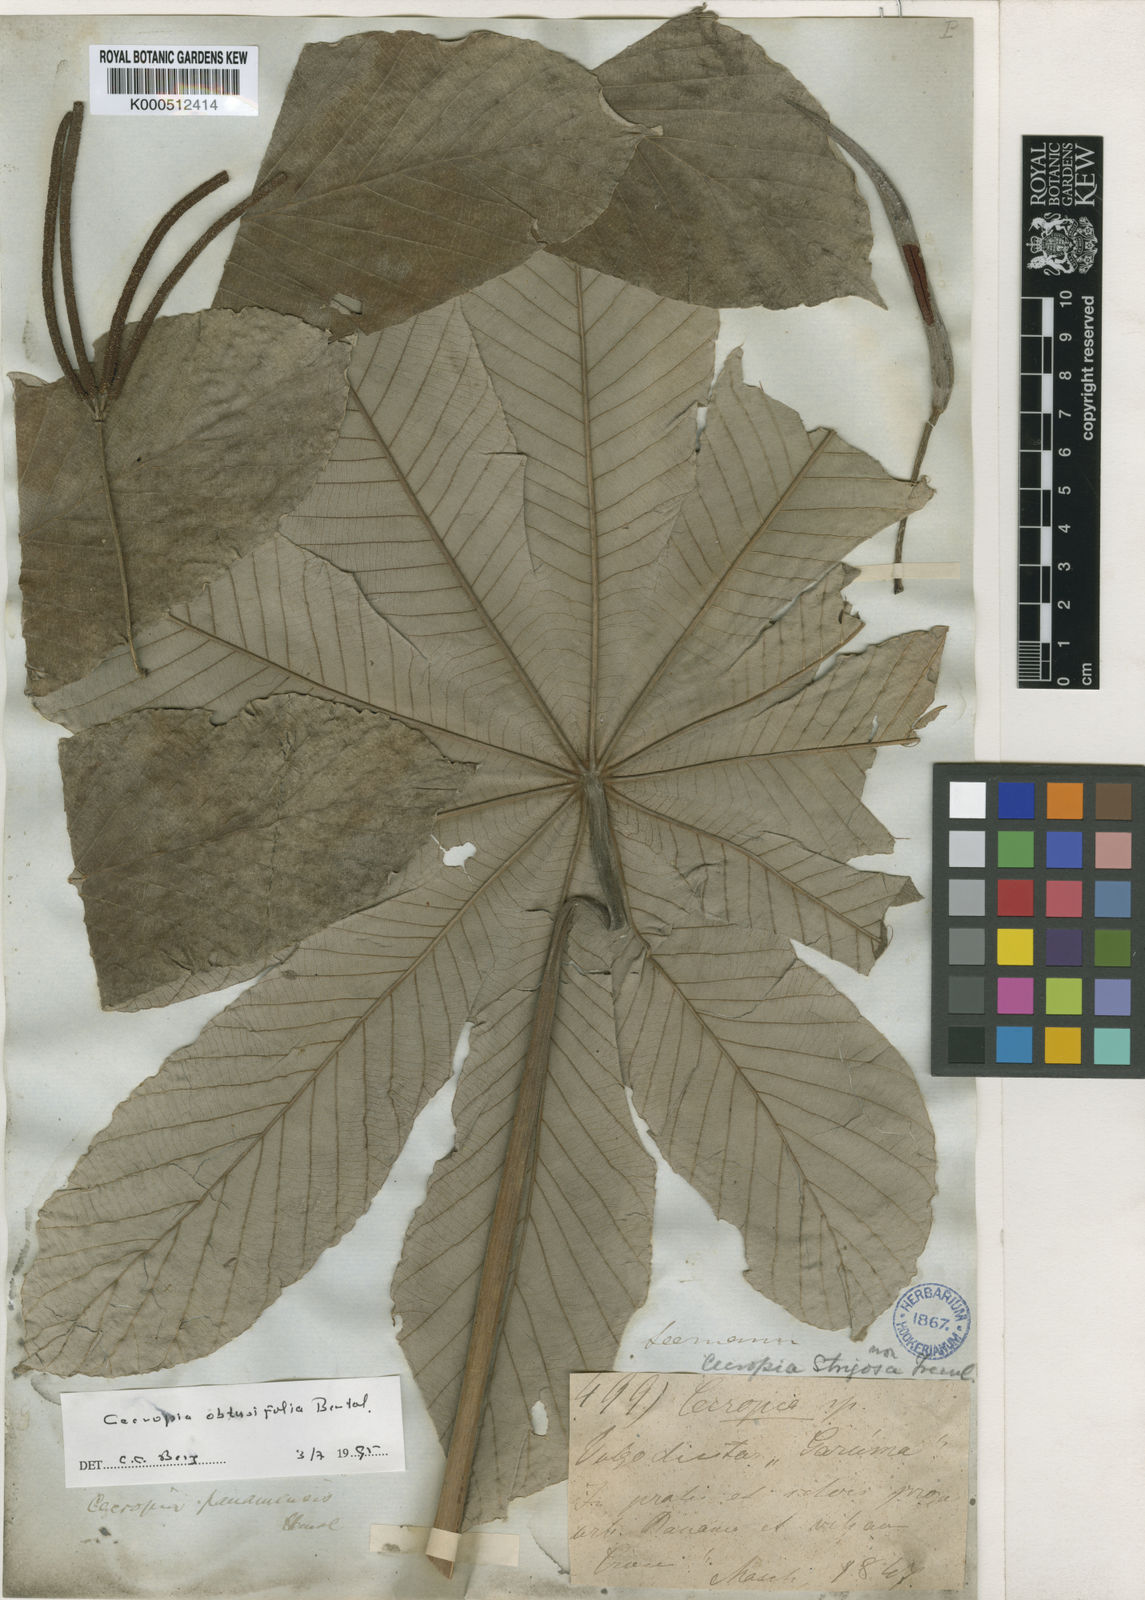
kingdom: Plantae
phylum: Tracheophyta
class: Magnoliopsida
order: Rosales
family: Urticaceae
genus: Cecropia
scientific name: Cecropia obtusifolia
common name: Trumpet tree
